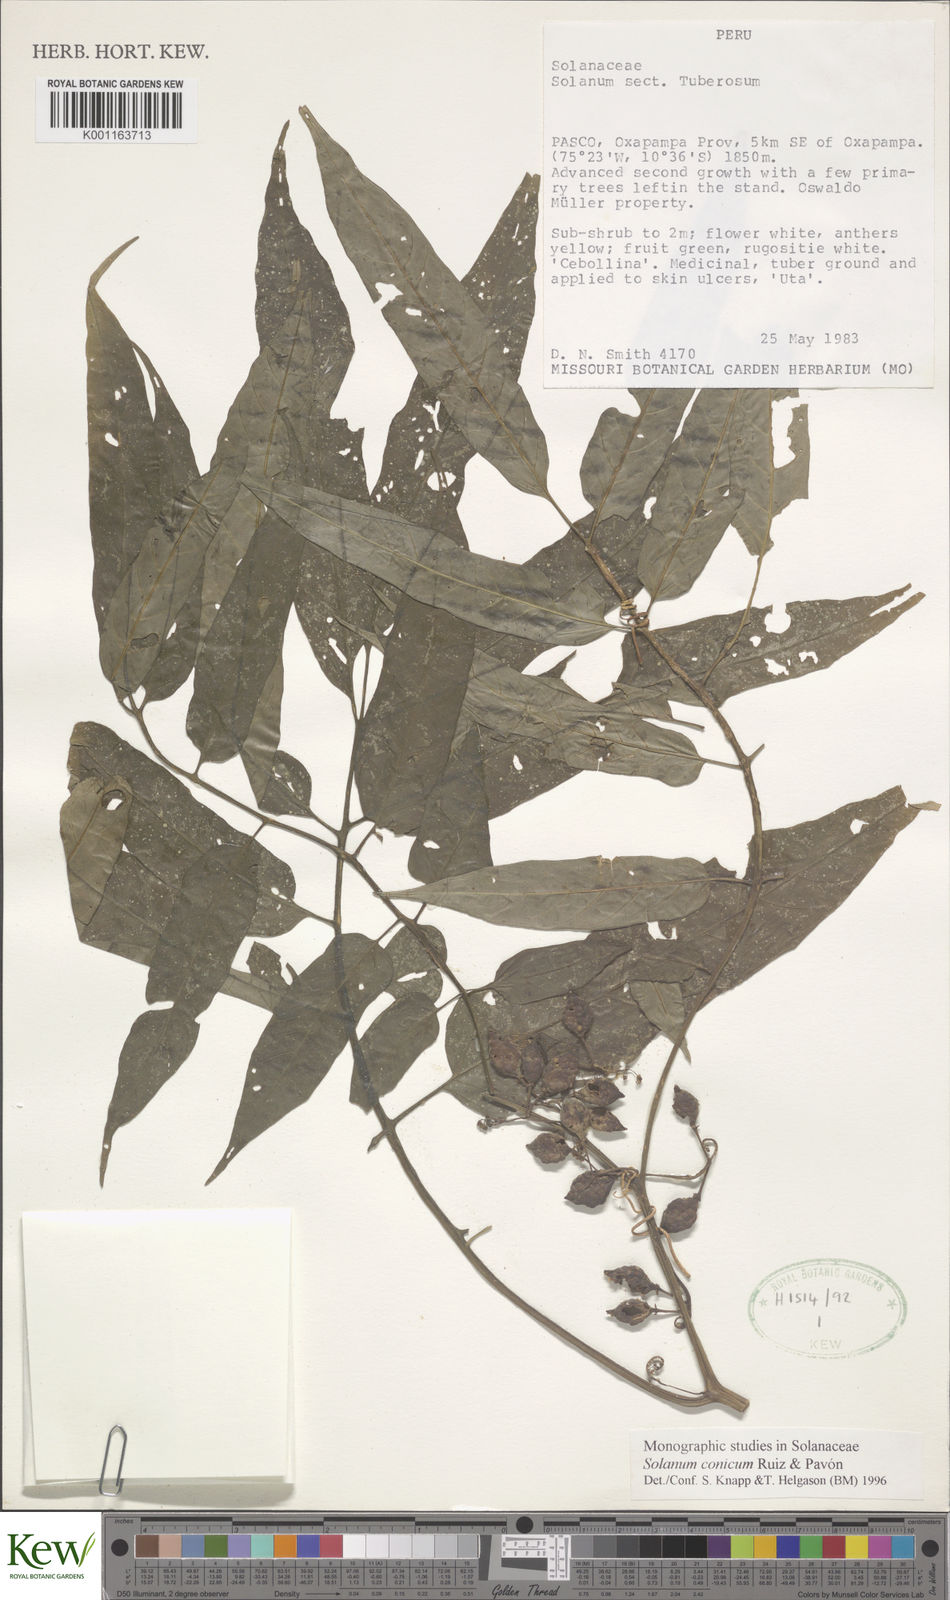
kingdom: Plantae
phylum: Tracheophyta
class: Magnoliopsida
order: Solanales
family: Solanaceae
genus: Solanum
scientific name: Solanum conicum
